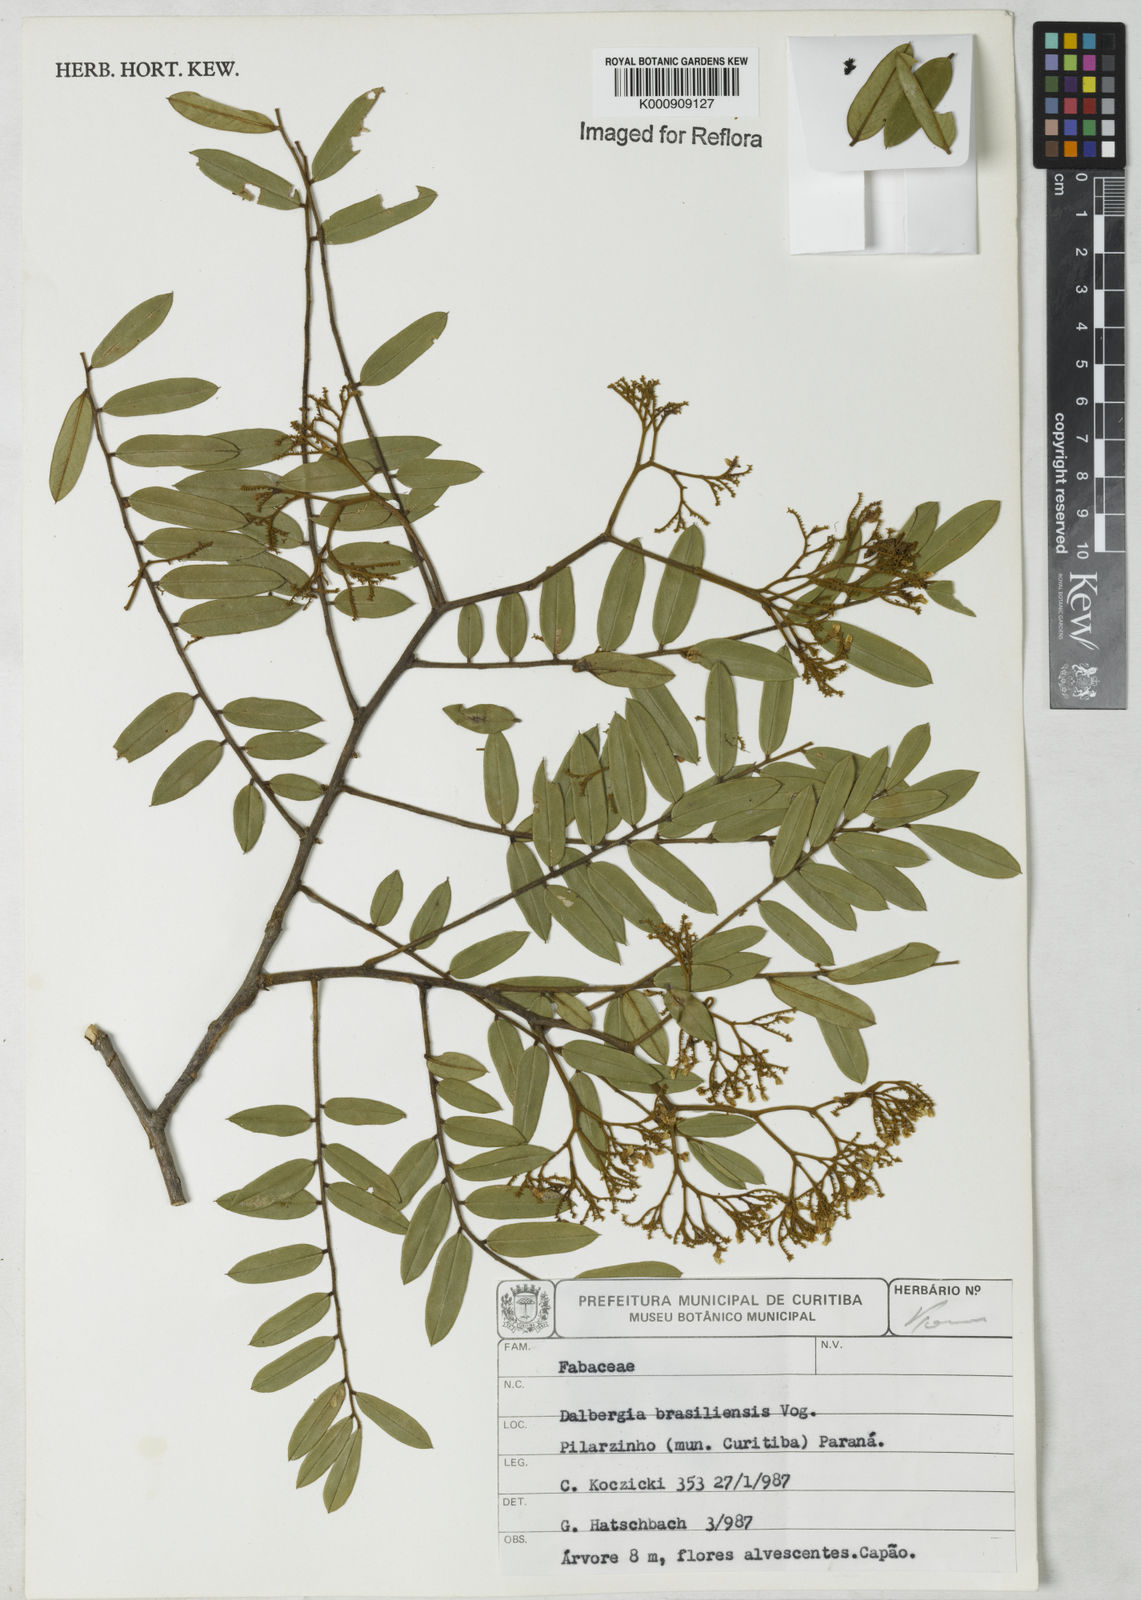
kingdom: Plantae
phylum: Tracheophyta
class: Magnoliopsida
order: Fabales
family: Fabaceae
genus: Dalbergia
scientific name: Dalbergia brasiliensis
